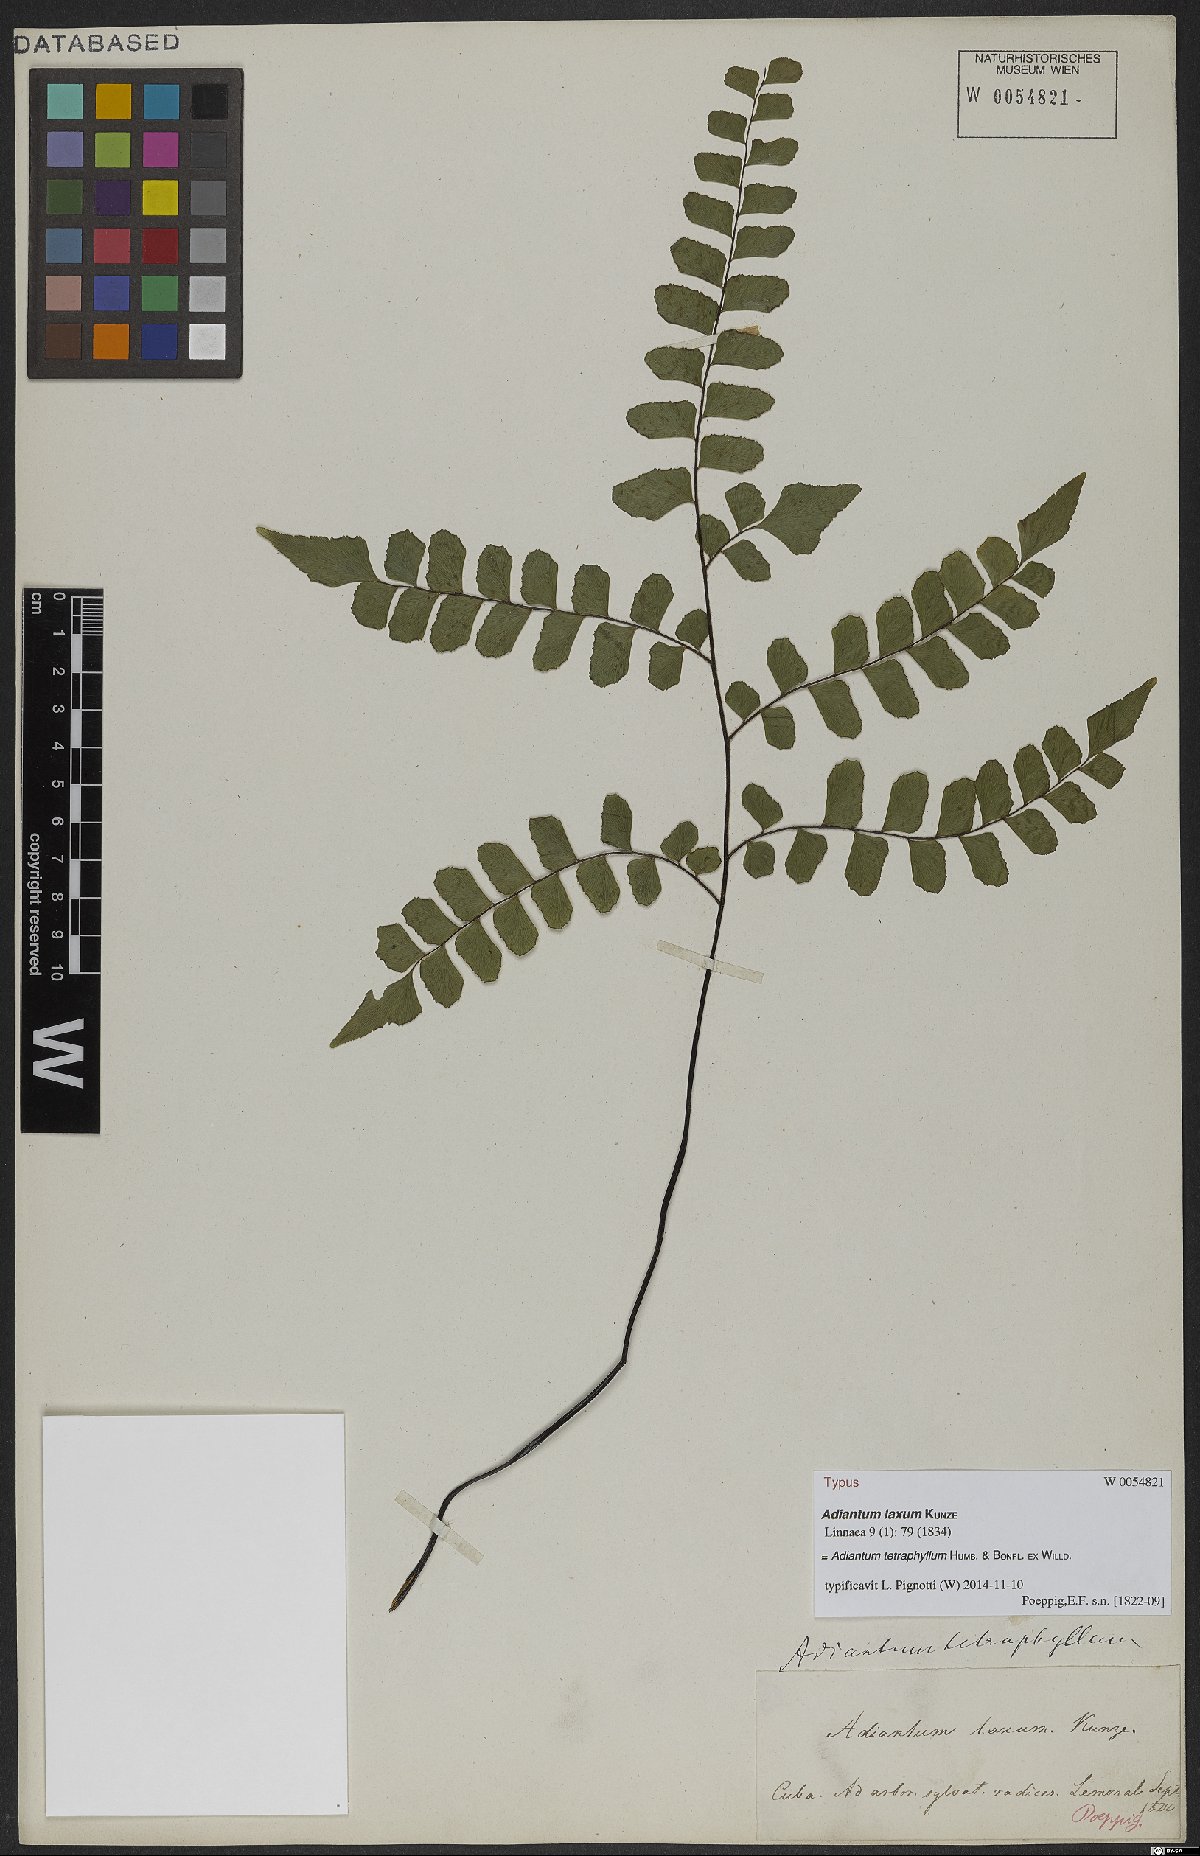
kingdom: Plantae
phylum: Tracheophyta
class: Polypodiopsida
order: Polypodiales
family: Pteridaceae
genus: Adiantum
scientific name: Adiantum tetraphyllum
